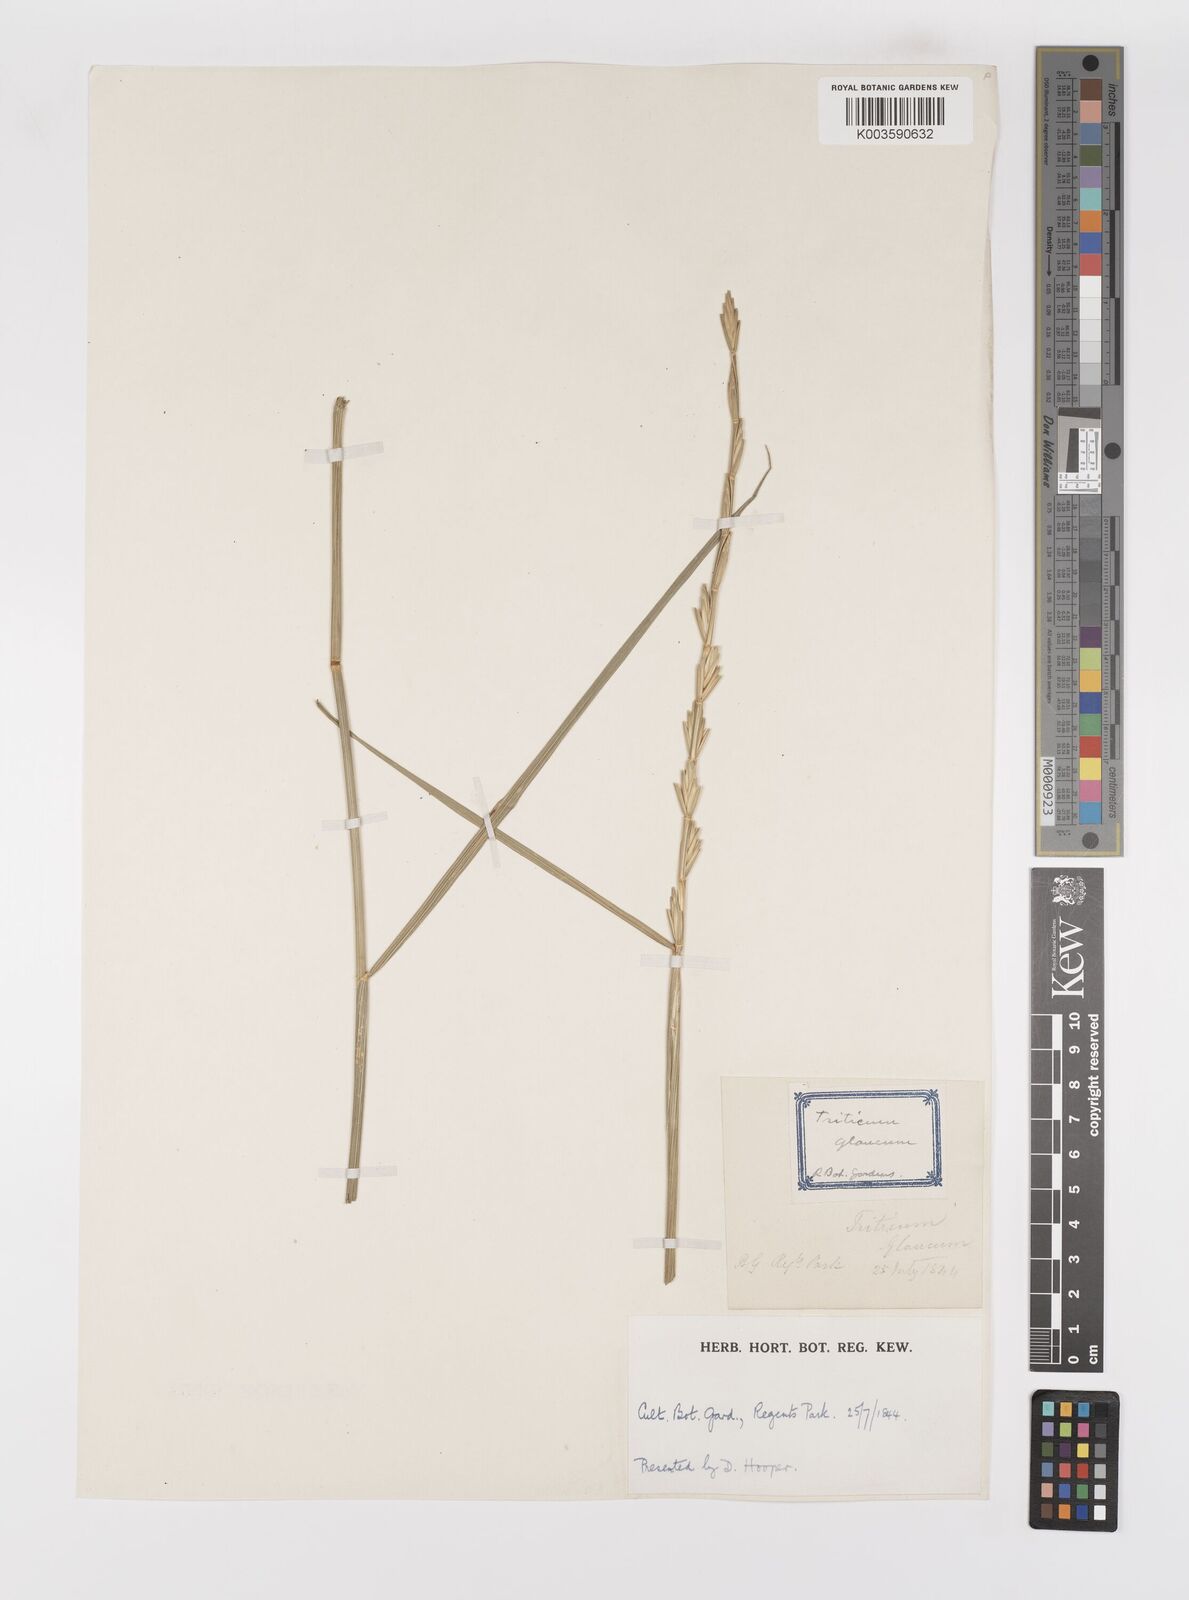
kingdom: Plantae
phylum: Tracheophyta
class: Liliopsida
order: Poales
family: Poaceae
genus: Thinopyrum
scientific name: Thinopyrum intermedium
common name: Intermediate wheatgrass
